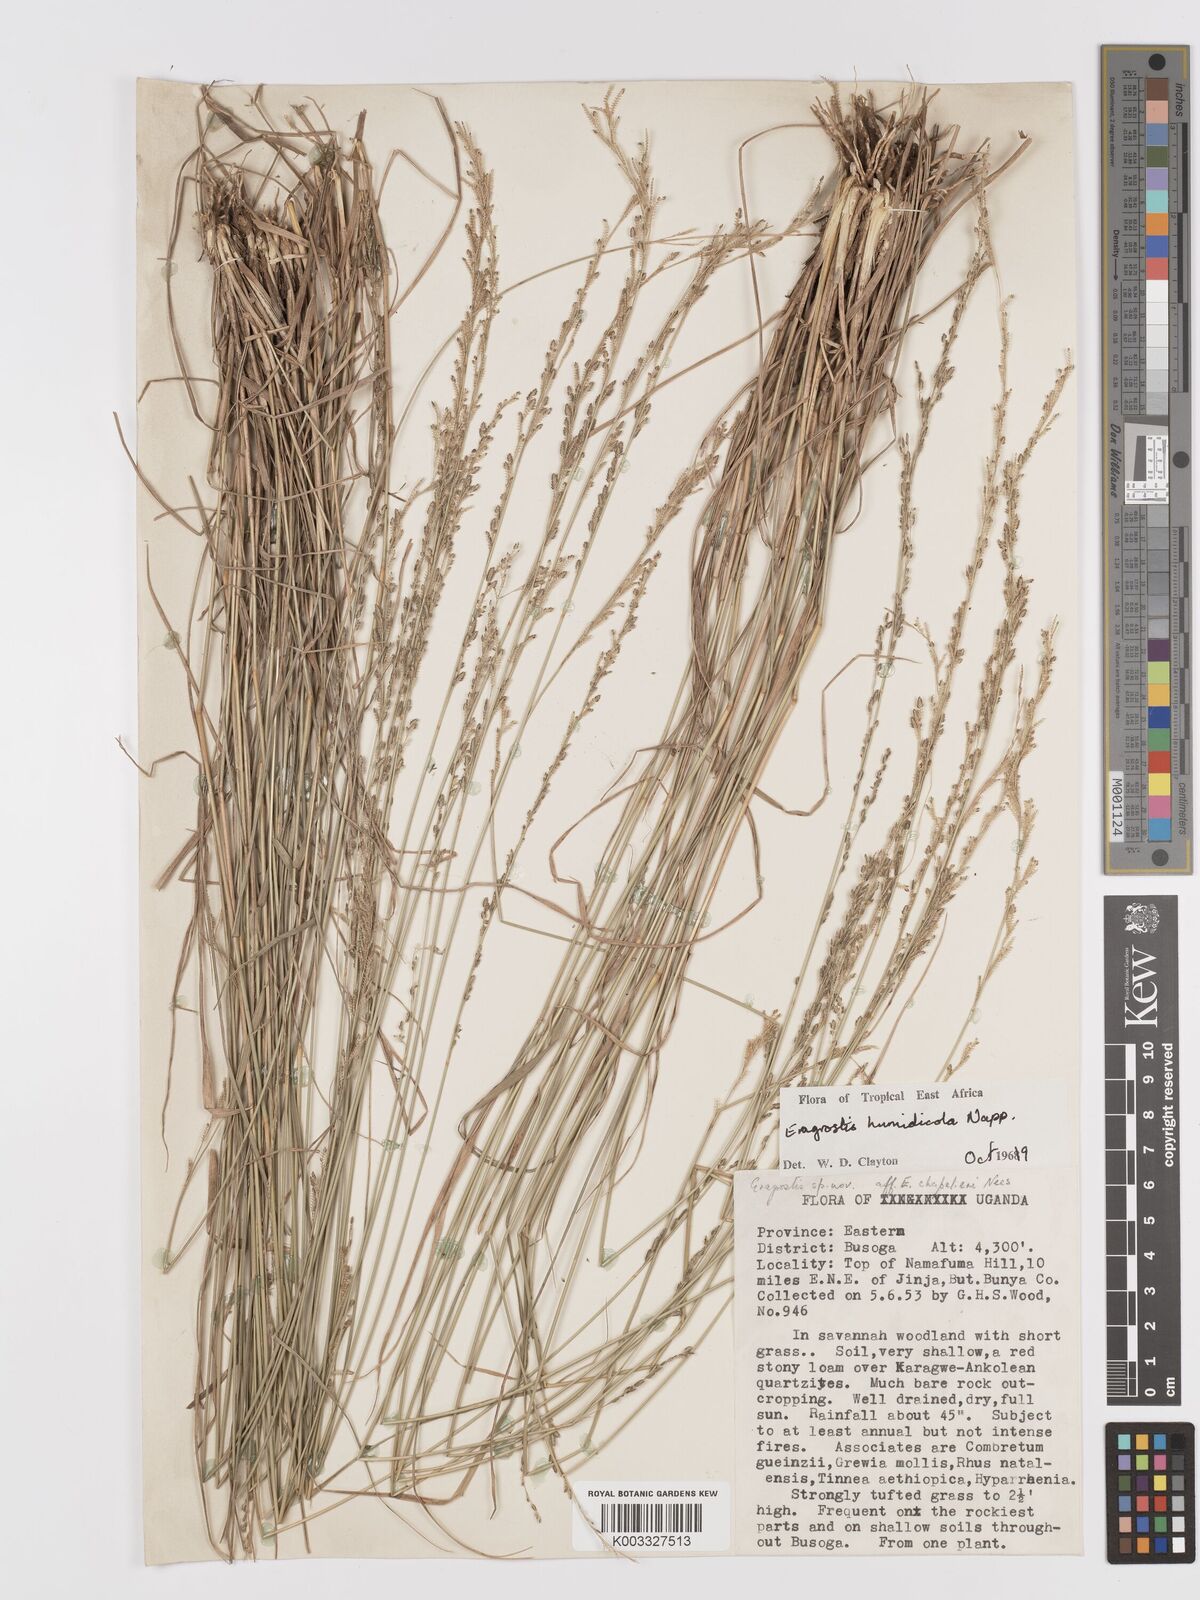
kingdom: Plantae
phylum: Tracheophyta
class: Liliopsida
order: Poales
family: Poaceae
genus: Eragrostis
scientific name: Eragrostis humidicola
